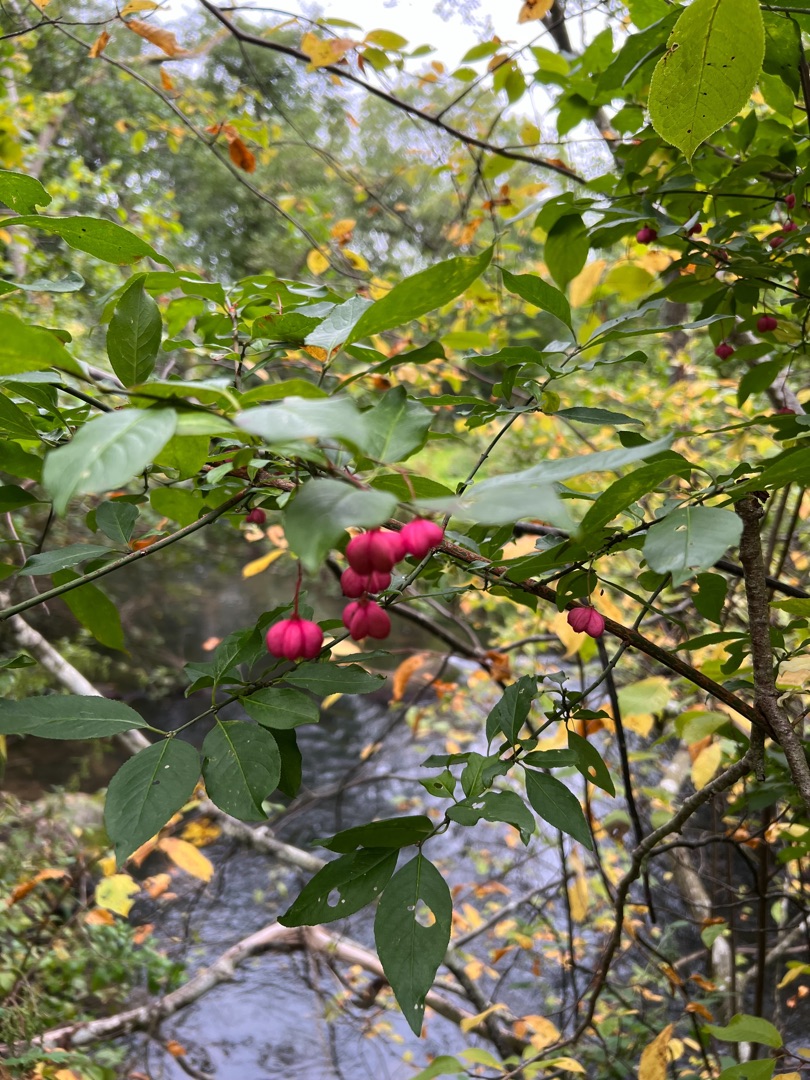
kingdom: Plantae
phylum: Tracheophyta
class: Magnoliopsida
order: Celastrales
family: Celastraceae
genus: Euonymus
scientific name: Euonymus europaeus
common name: Benved
